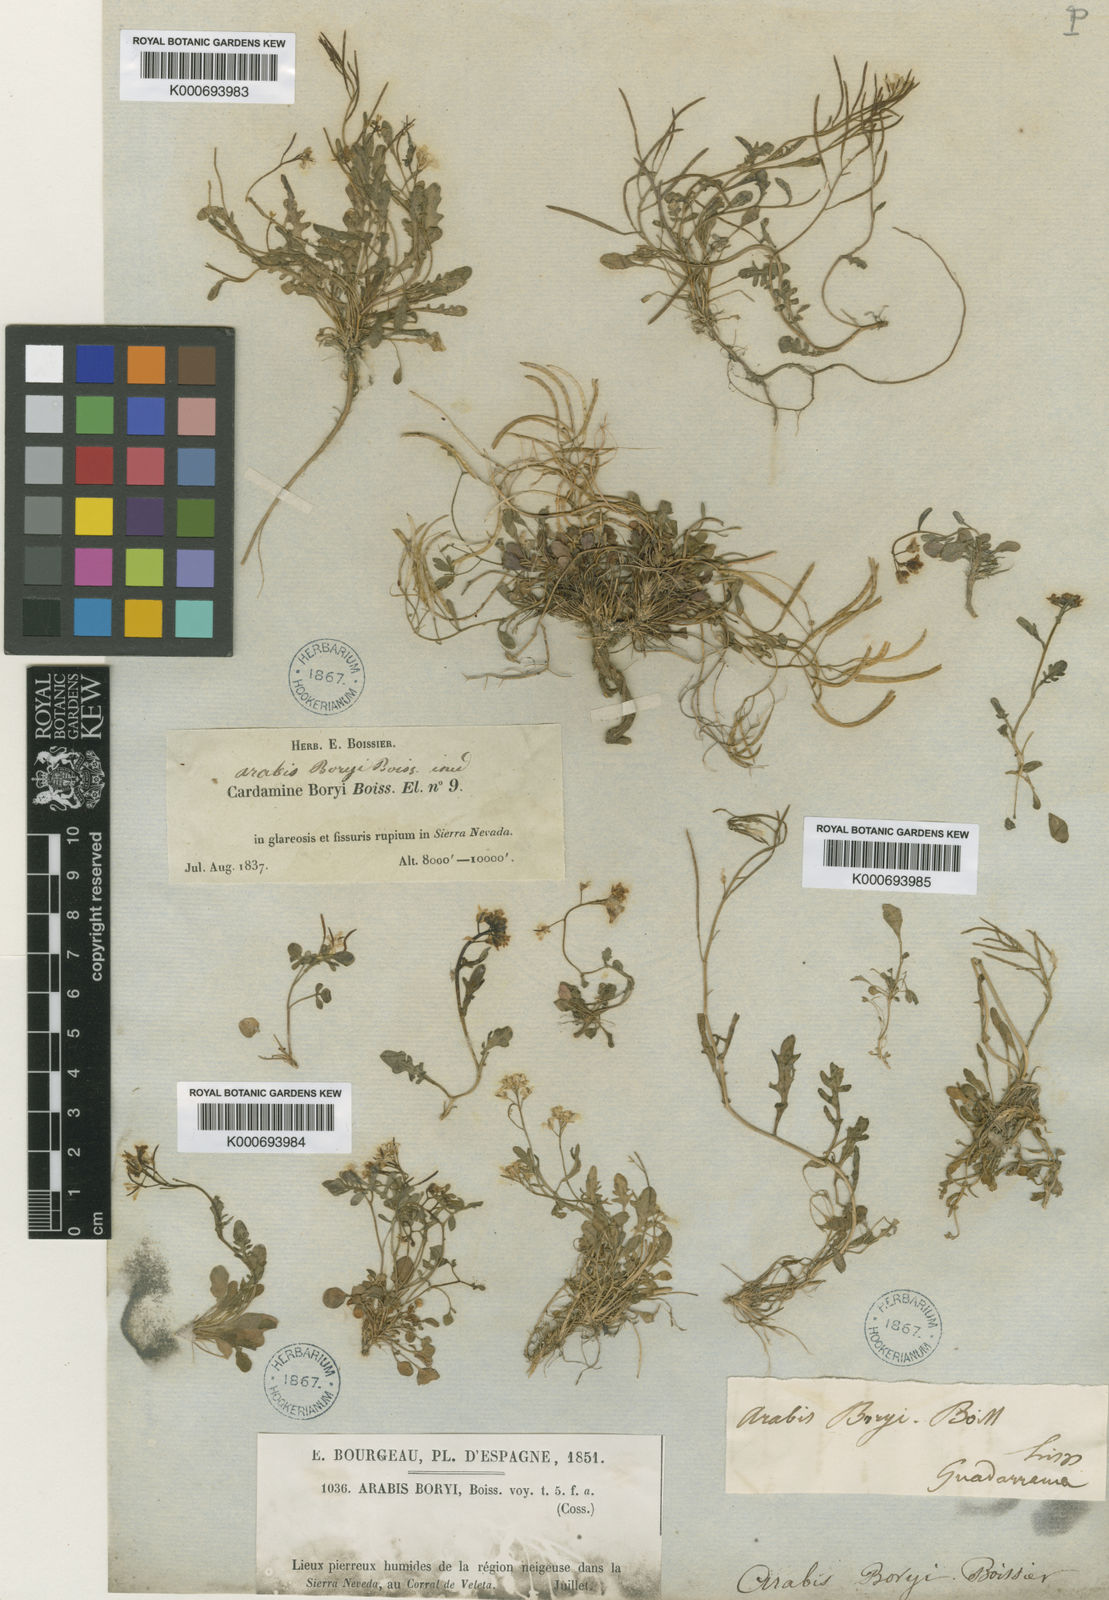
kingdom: Plantae
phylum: Tracheophyta
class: Magnoliopsida
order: Brassicales
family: Brassicaceae
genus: Murbeckiella
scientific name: Murbeckiella boryi
